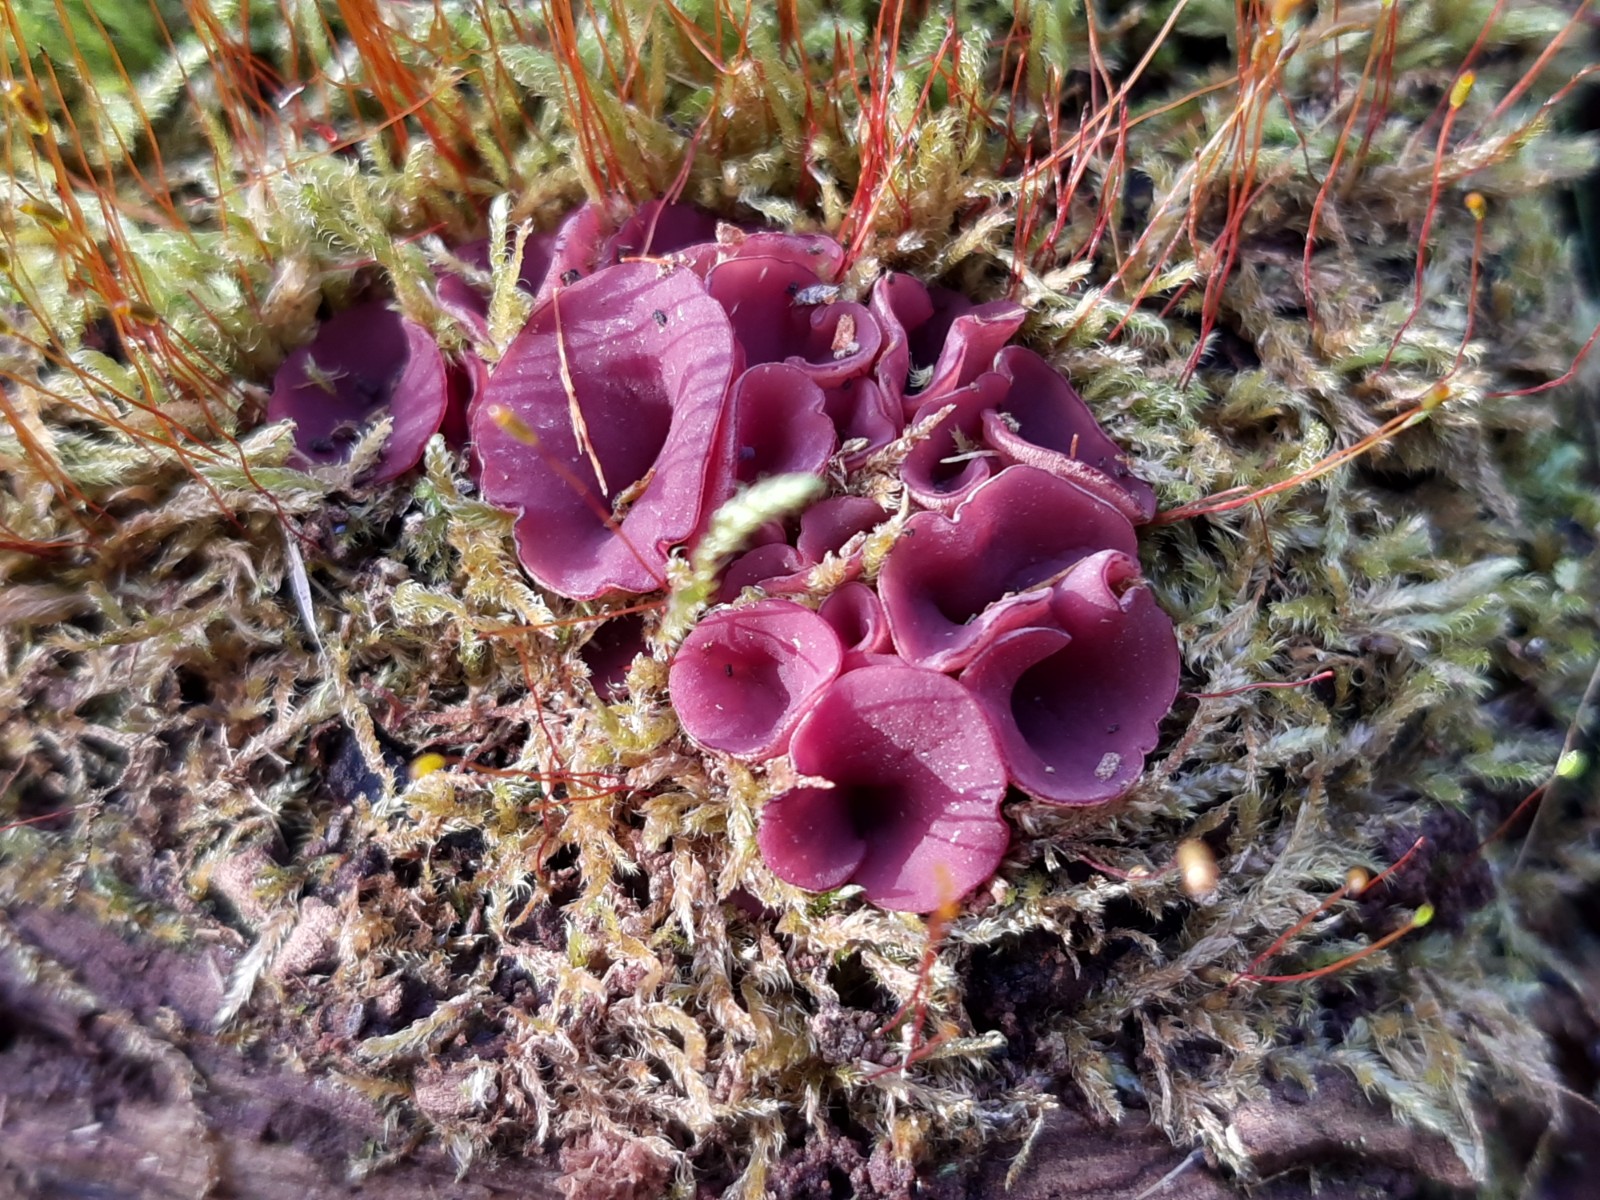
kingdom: Fungi
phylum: Ascomycota
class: Leotiomycetes
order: Helotiales
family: Gelatinodiscaceae
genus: Ascocoryne
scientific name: Ascocoryne cylichnium
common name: stor sejskive
